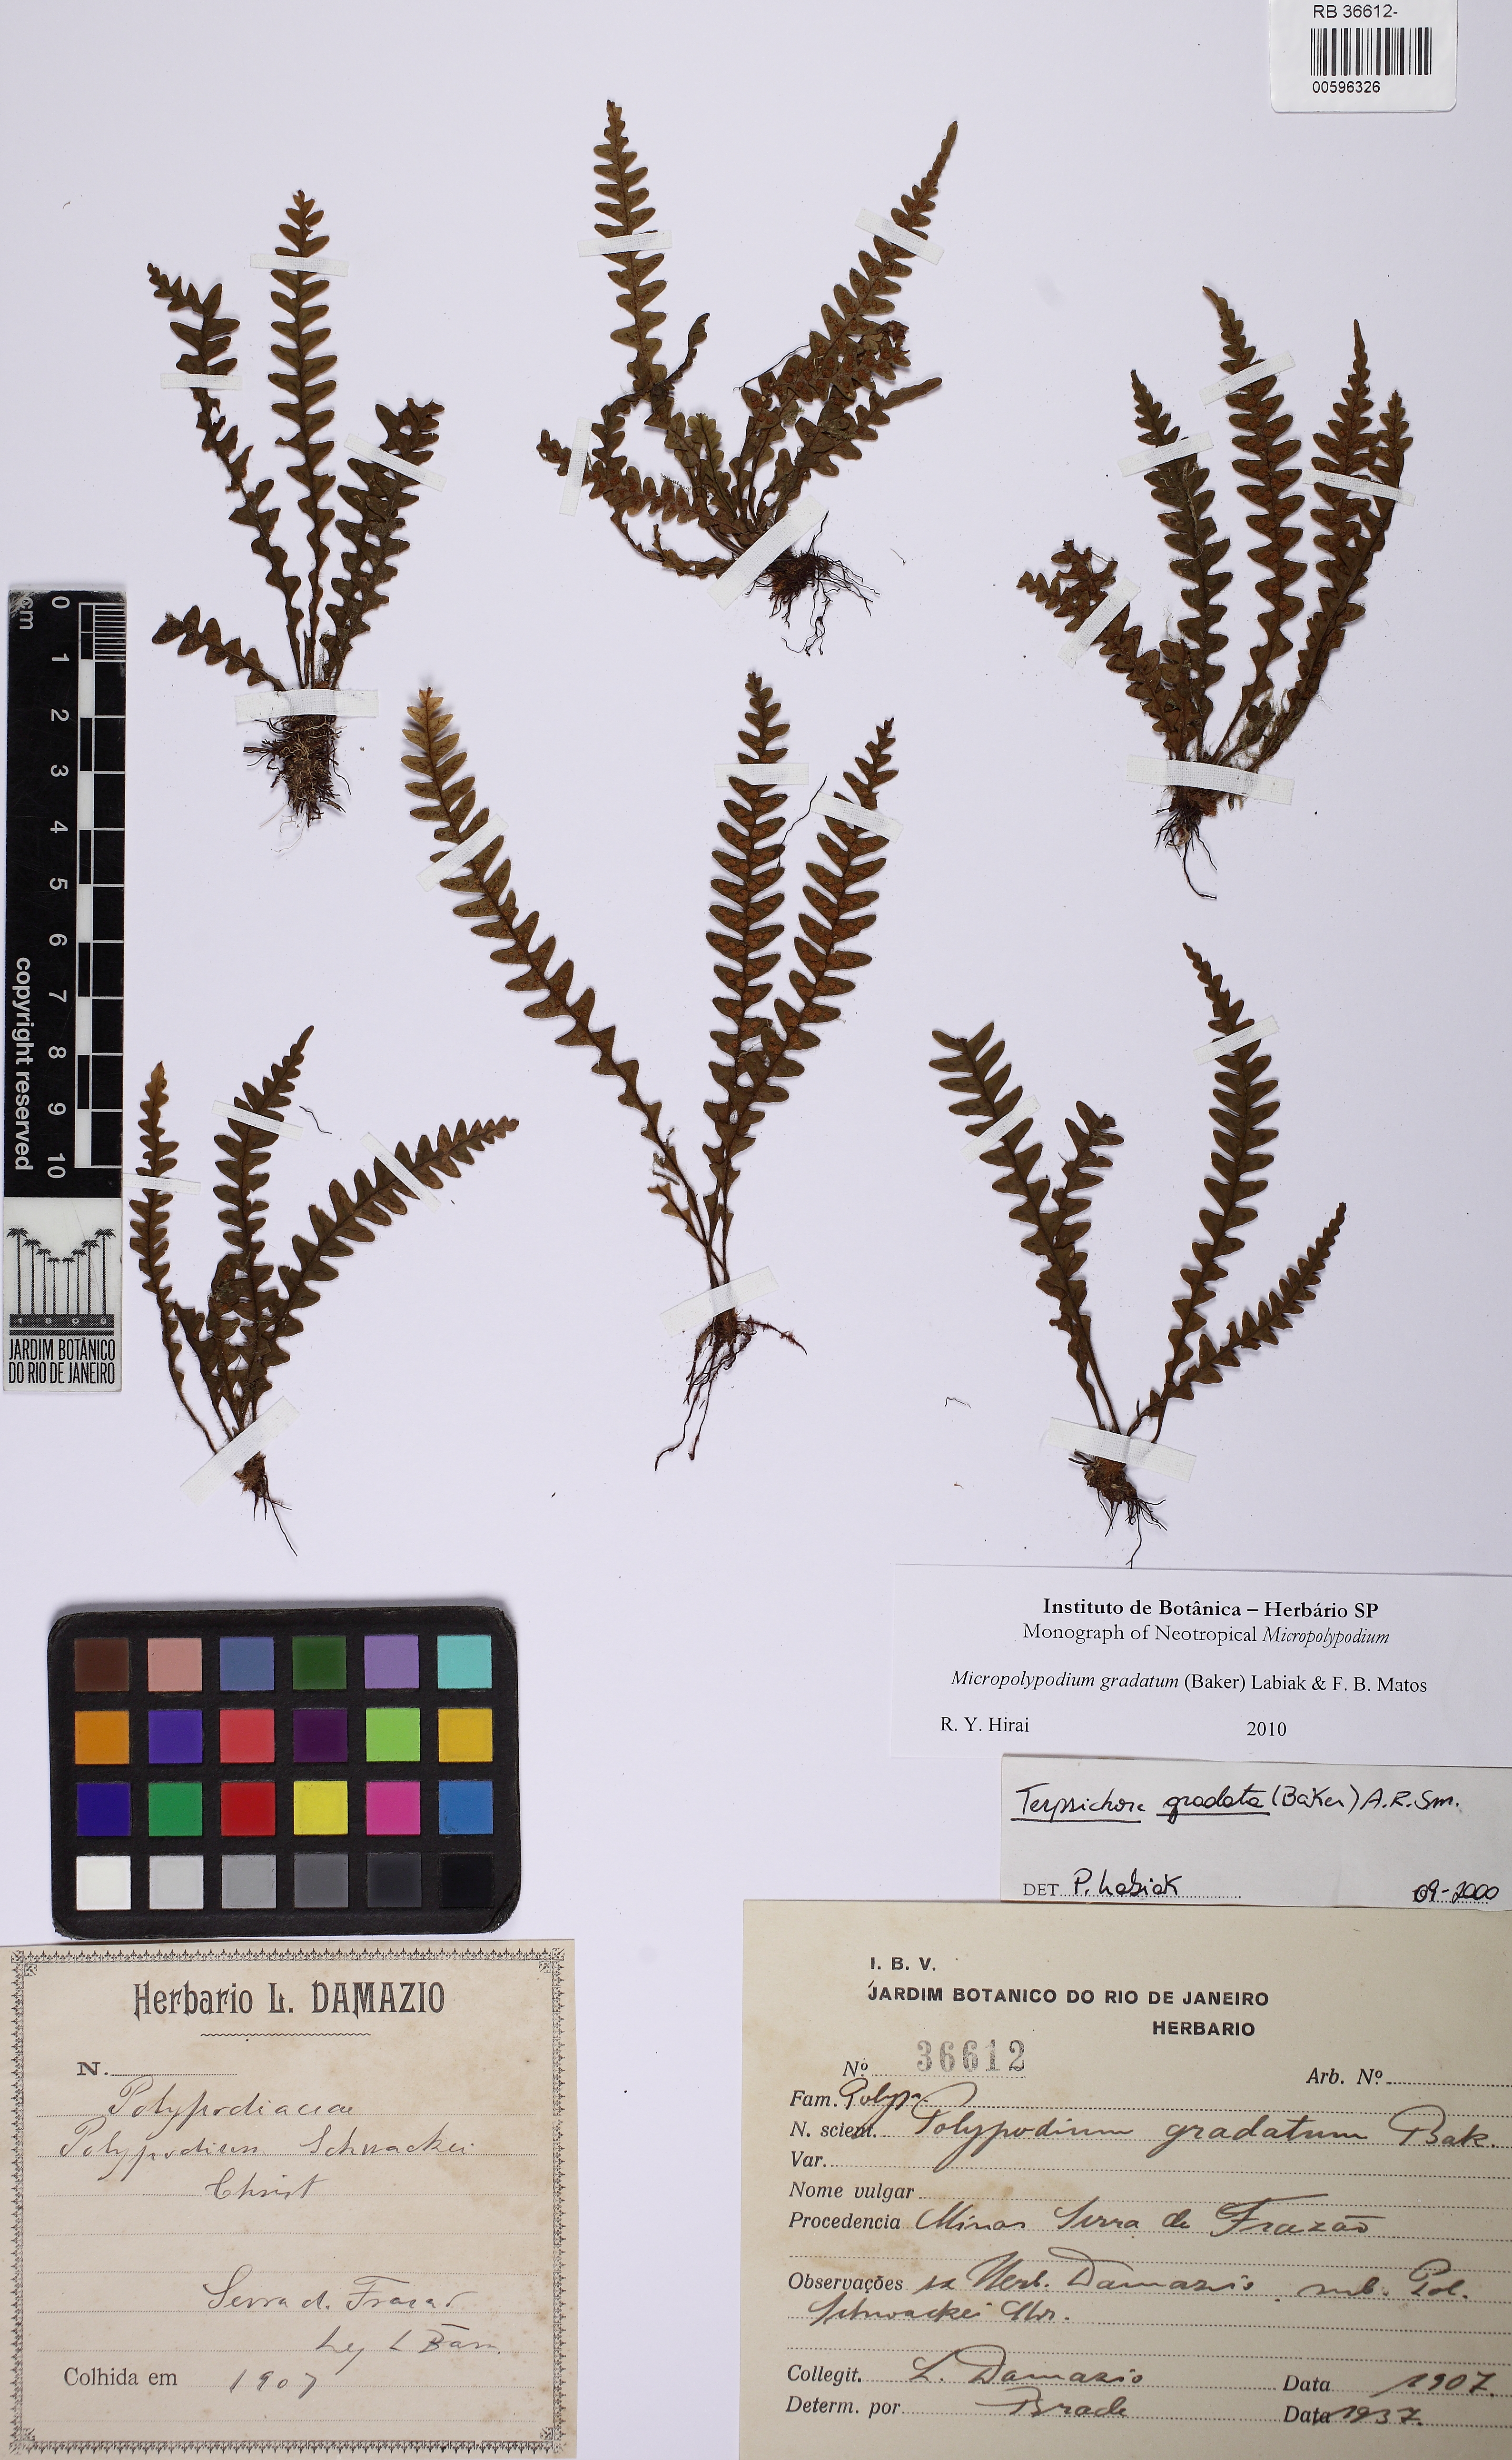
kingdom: Plantae
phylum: Tracheophyta
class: Polypodiopsida
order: Polypodiales
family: Polypodiaceae
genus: Moranopteris
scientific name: Moranopteris gradata
